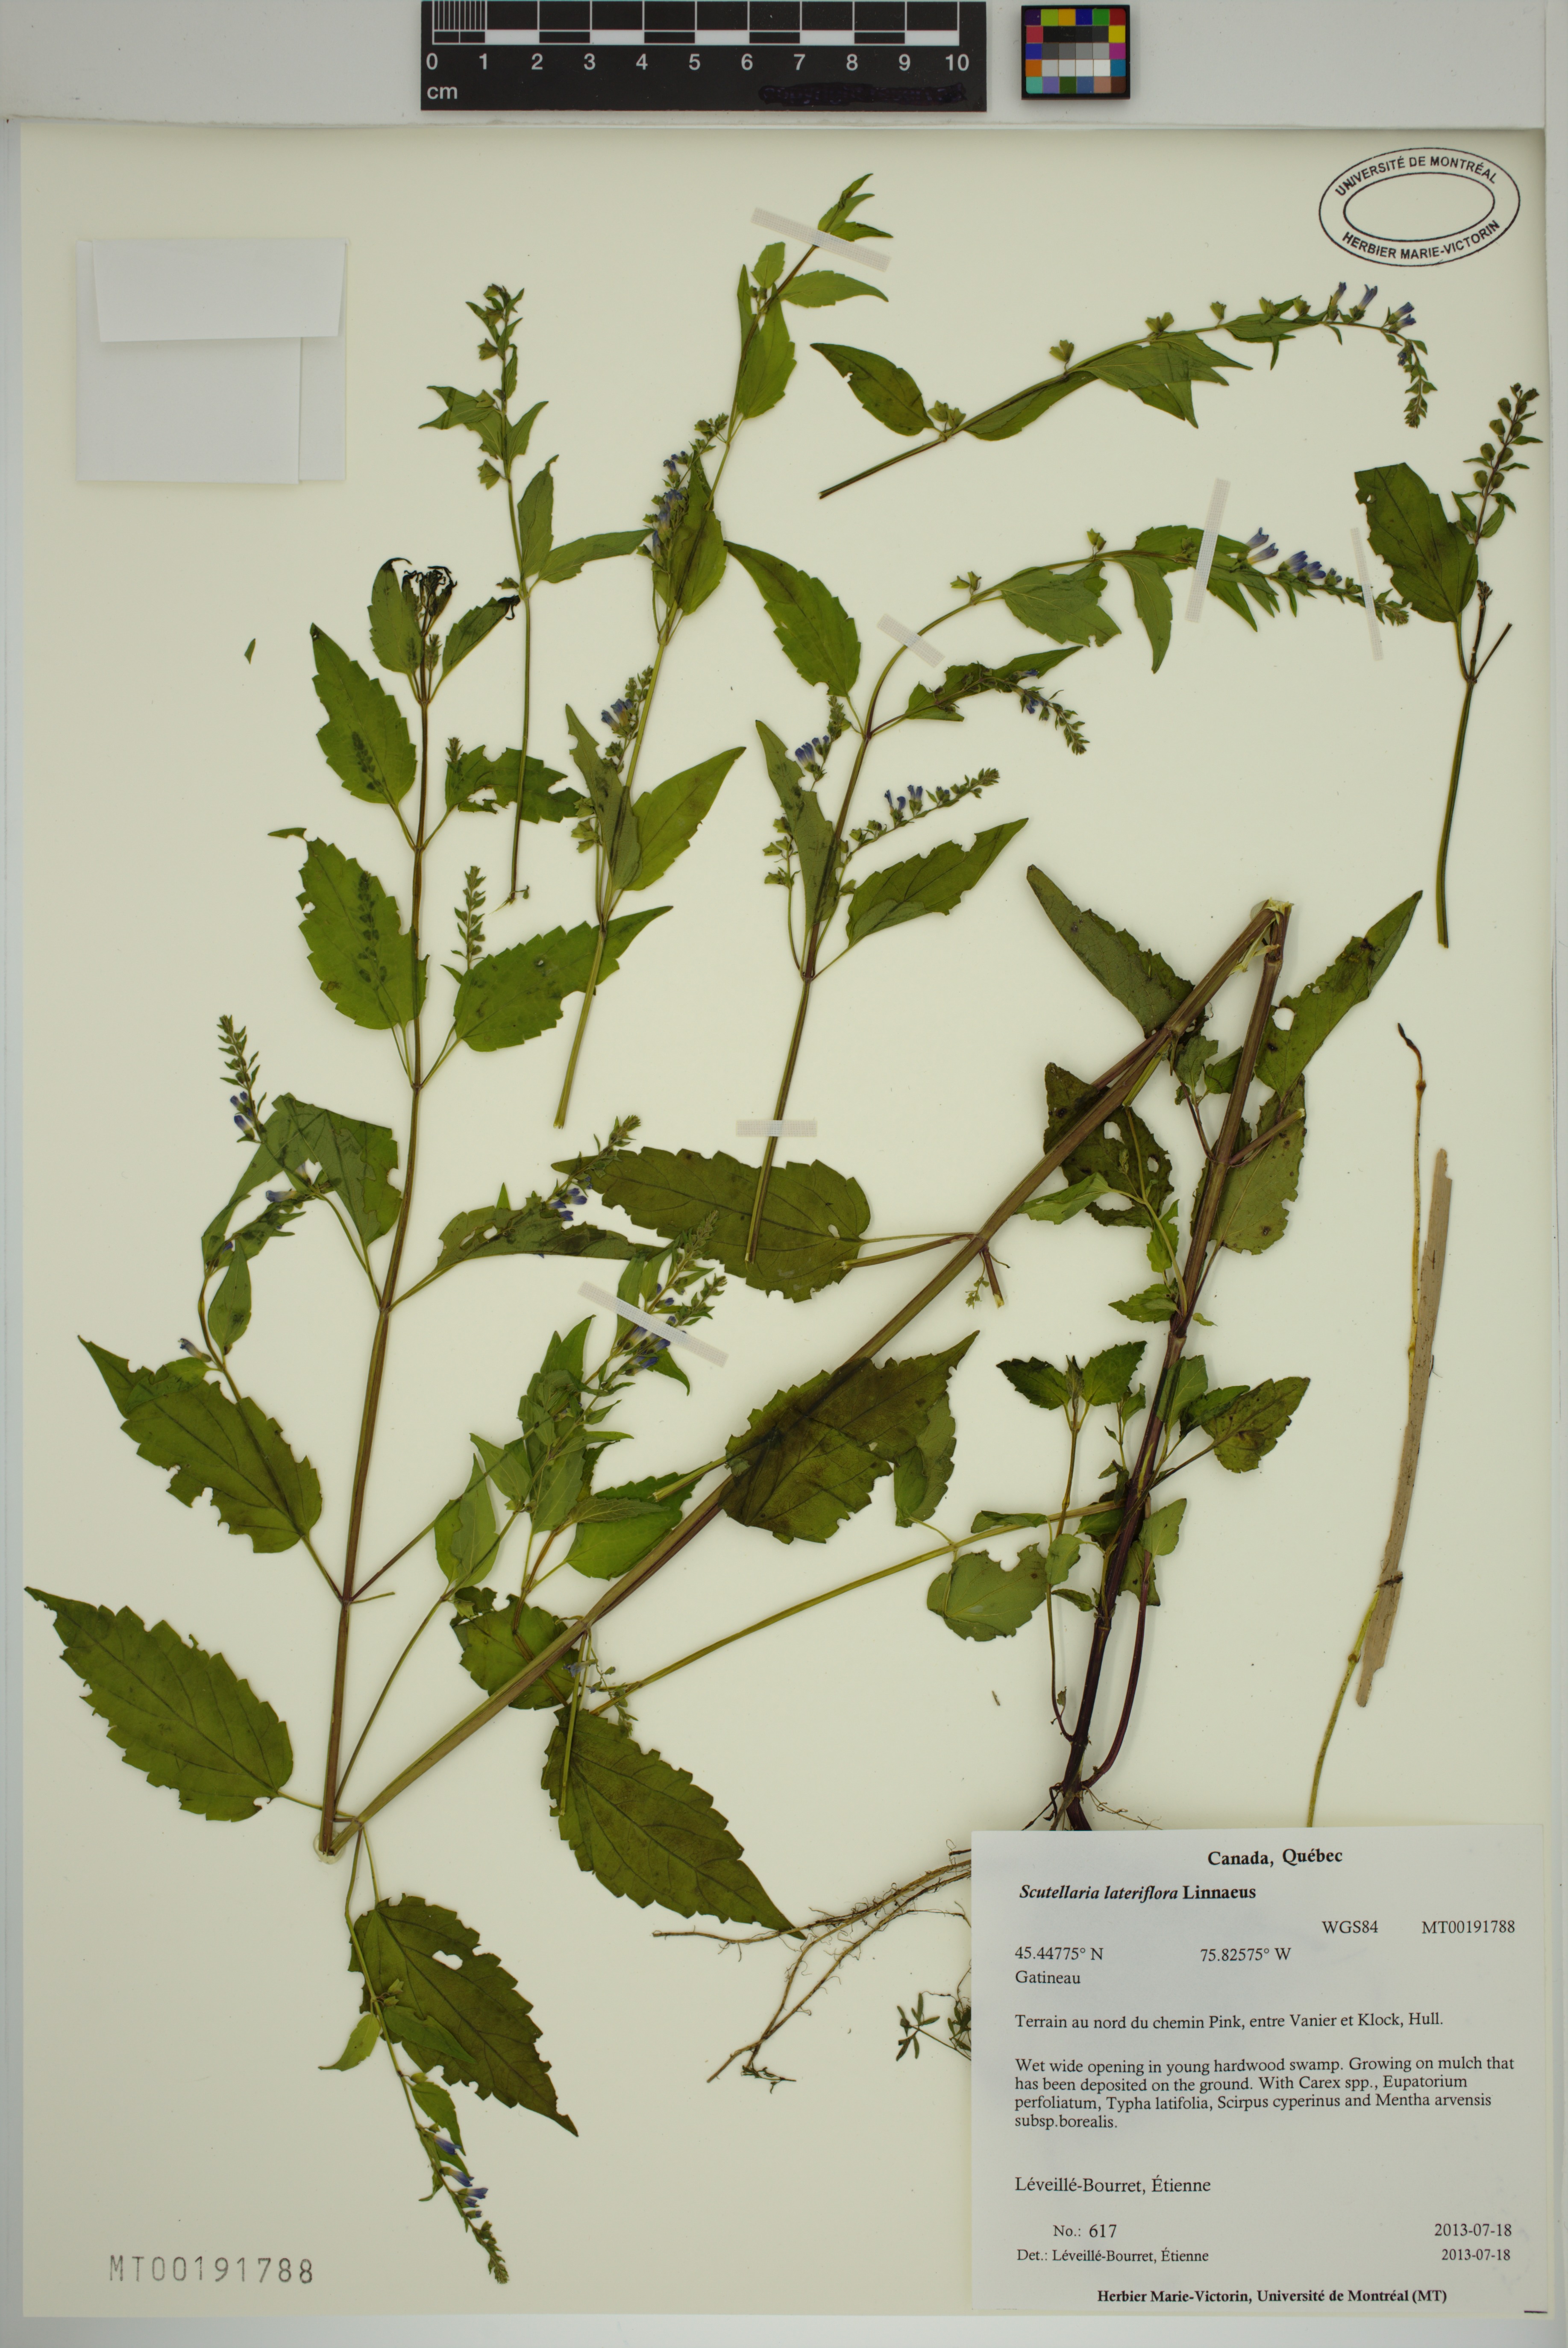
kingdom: Plantae
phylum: Tracheophyta
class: Magnoliopsida
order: Lamiales
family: Lamiaceae
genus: Scutellaria
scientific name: Scutellaria lateriflora
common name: Blue skullcap
